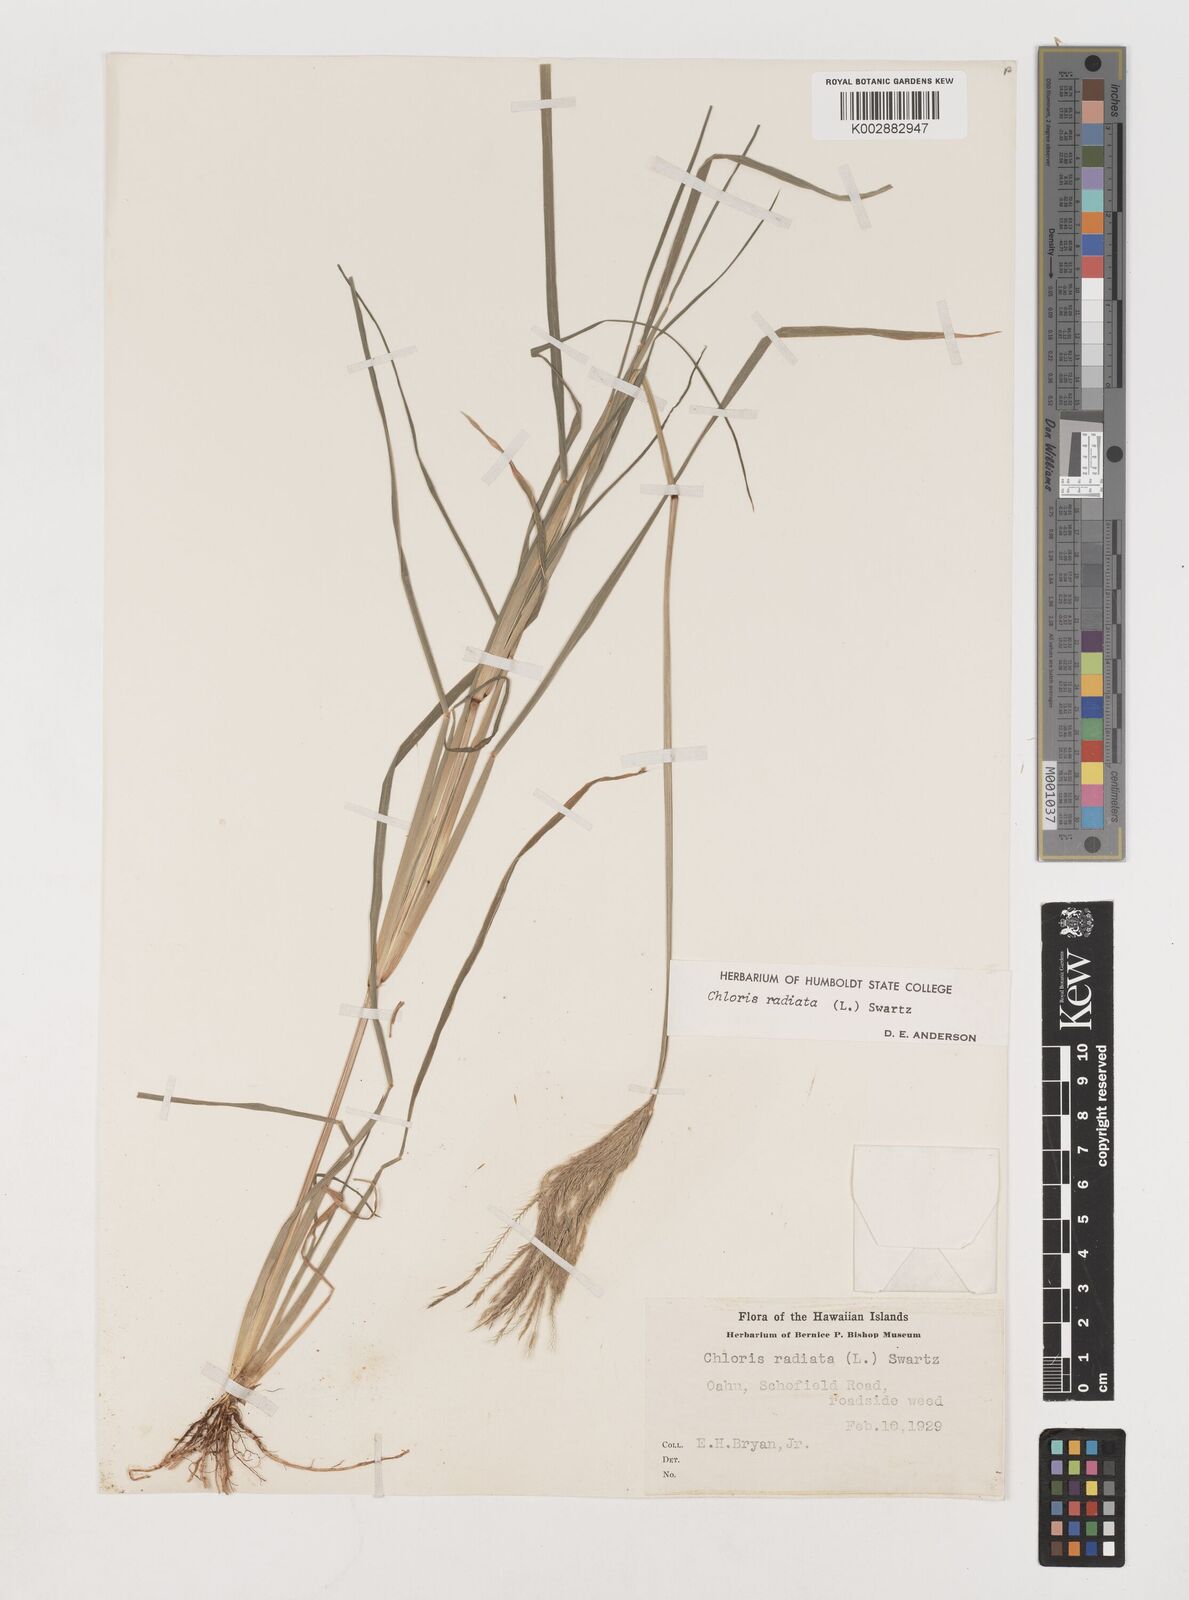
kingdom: Plantae
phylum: Tracheophyta
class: Liliopsida
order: Poales
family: Poaceae
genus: Chloris
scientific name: Chloris radiata
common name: Radiate fingergrass
